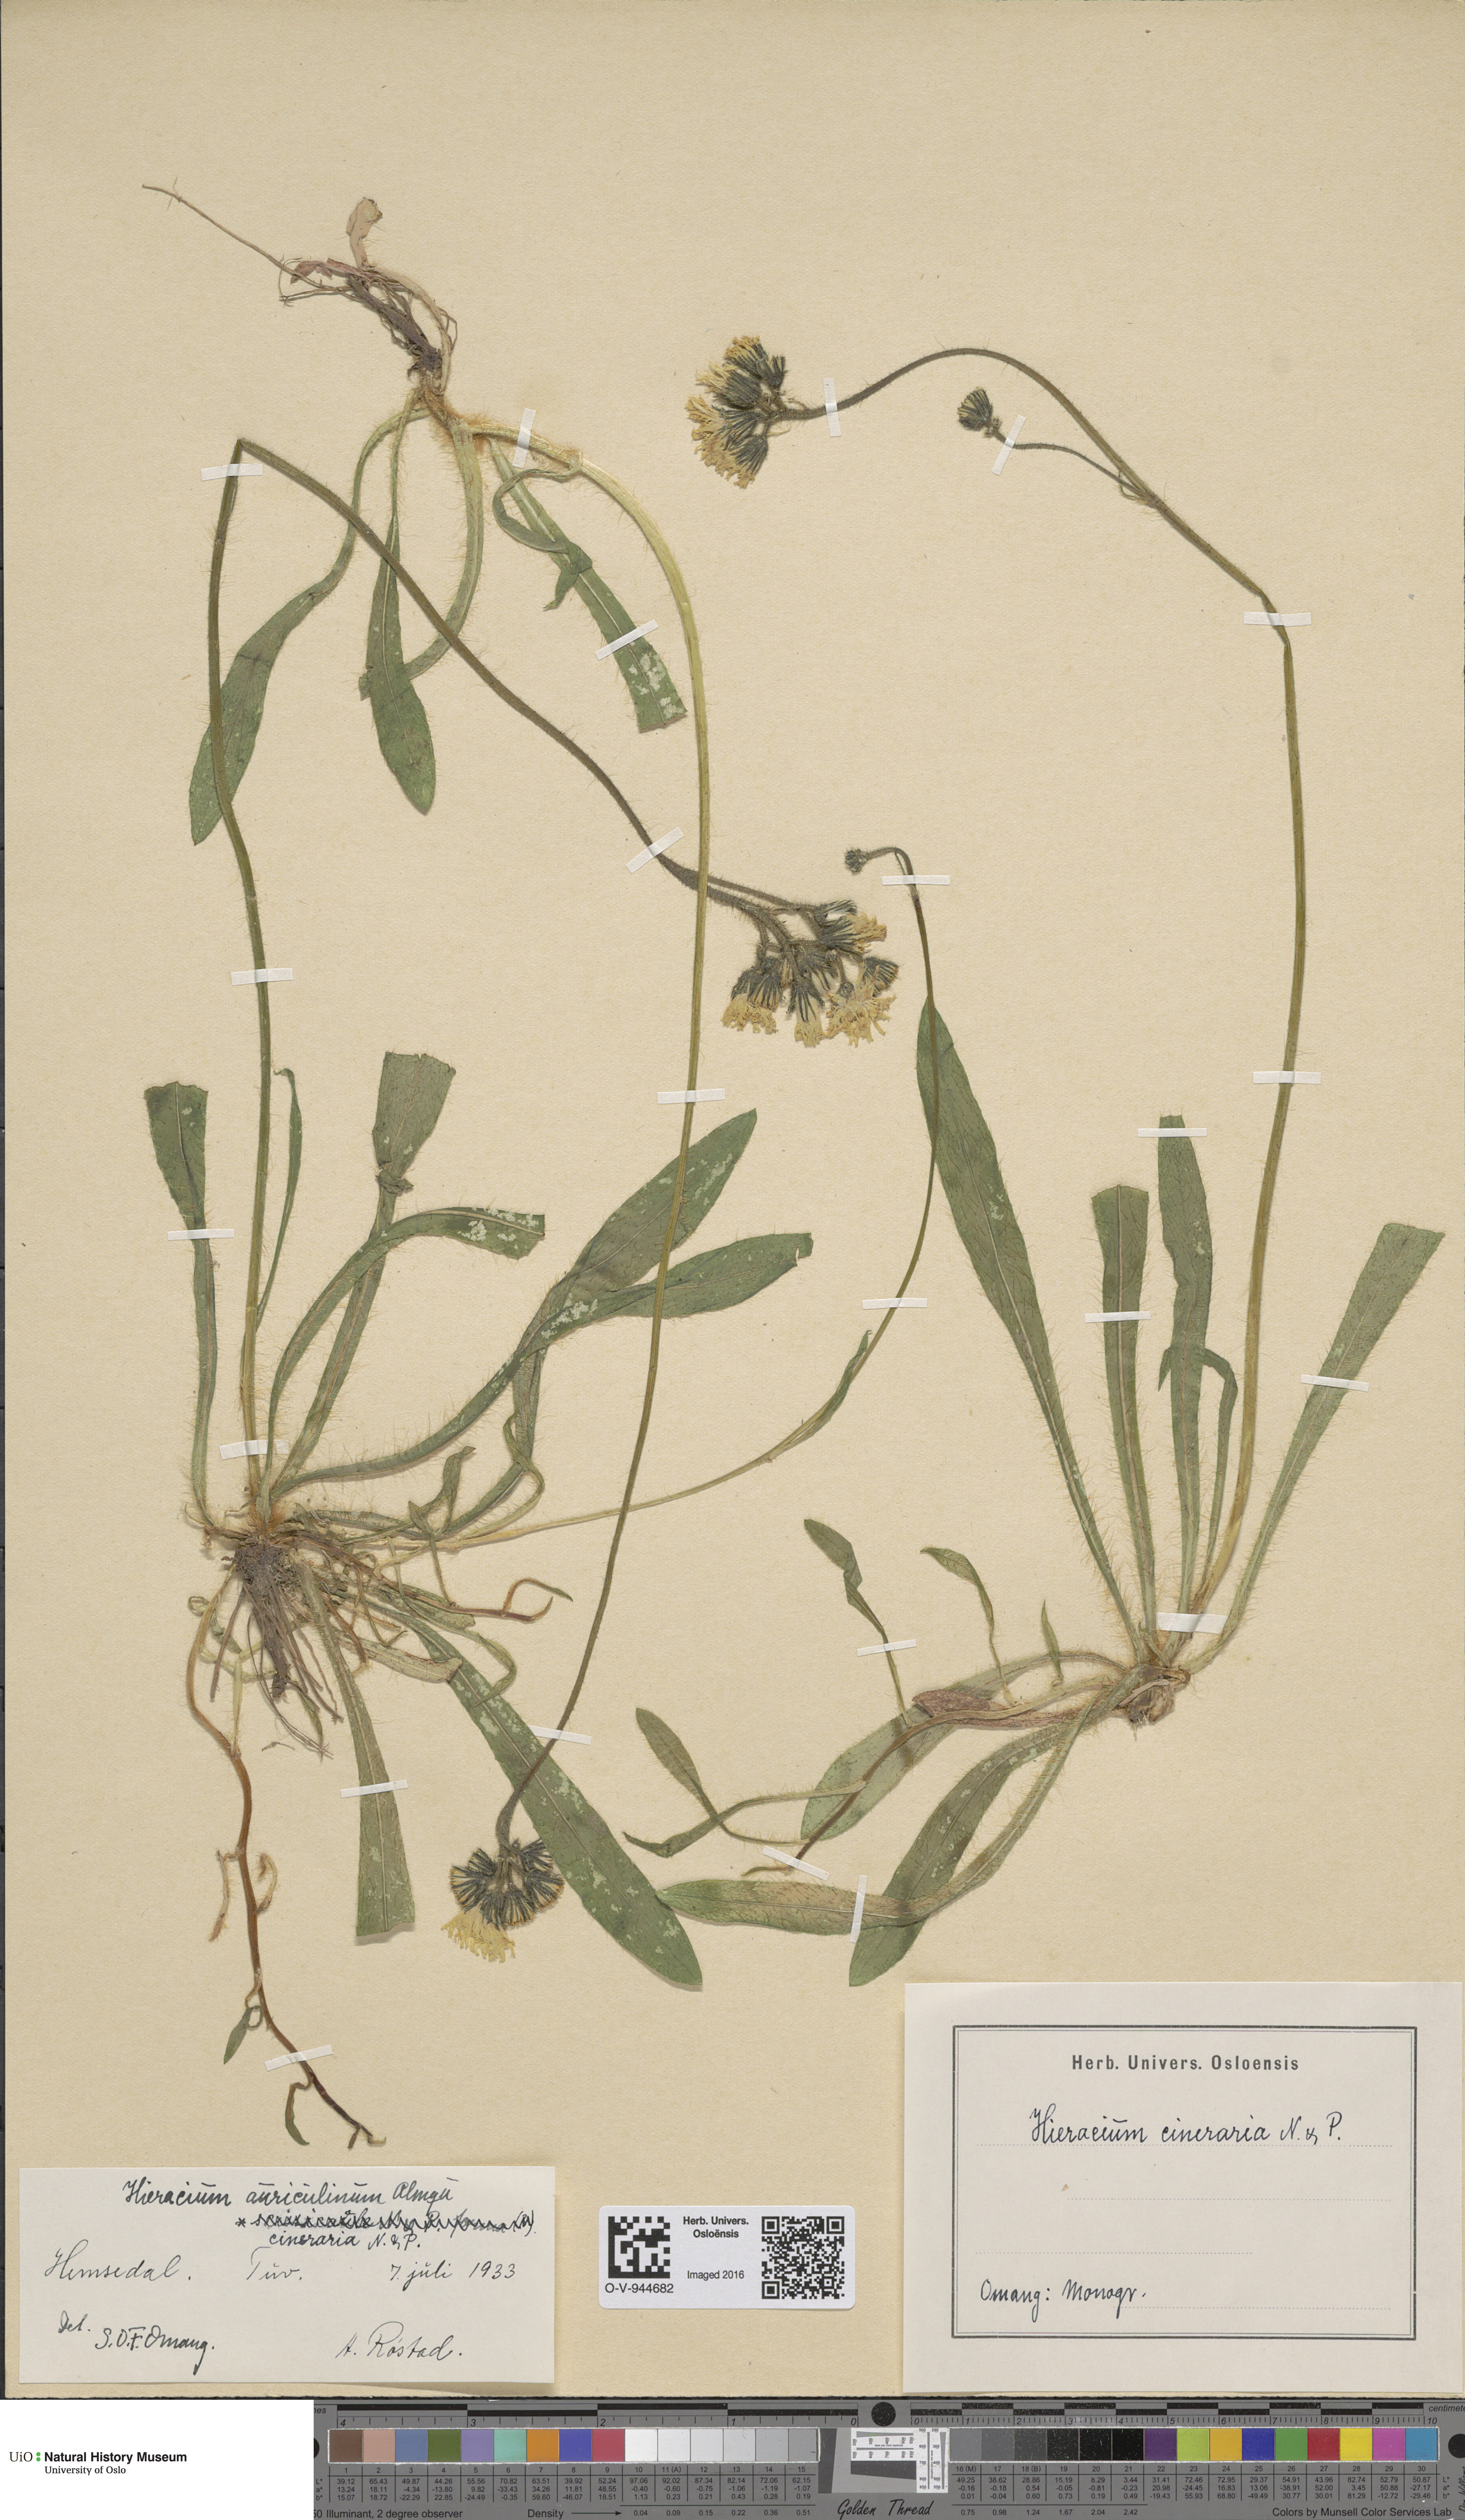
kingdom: Plantae
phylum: Tracheophyta
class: Magnoliopsida
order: Asterales
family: Asteraceae
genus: Pilosella
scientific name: Pilosella moechiadia
